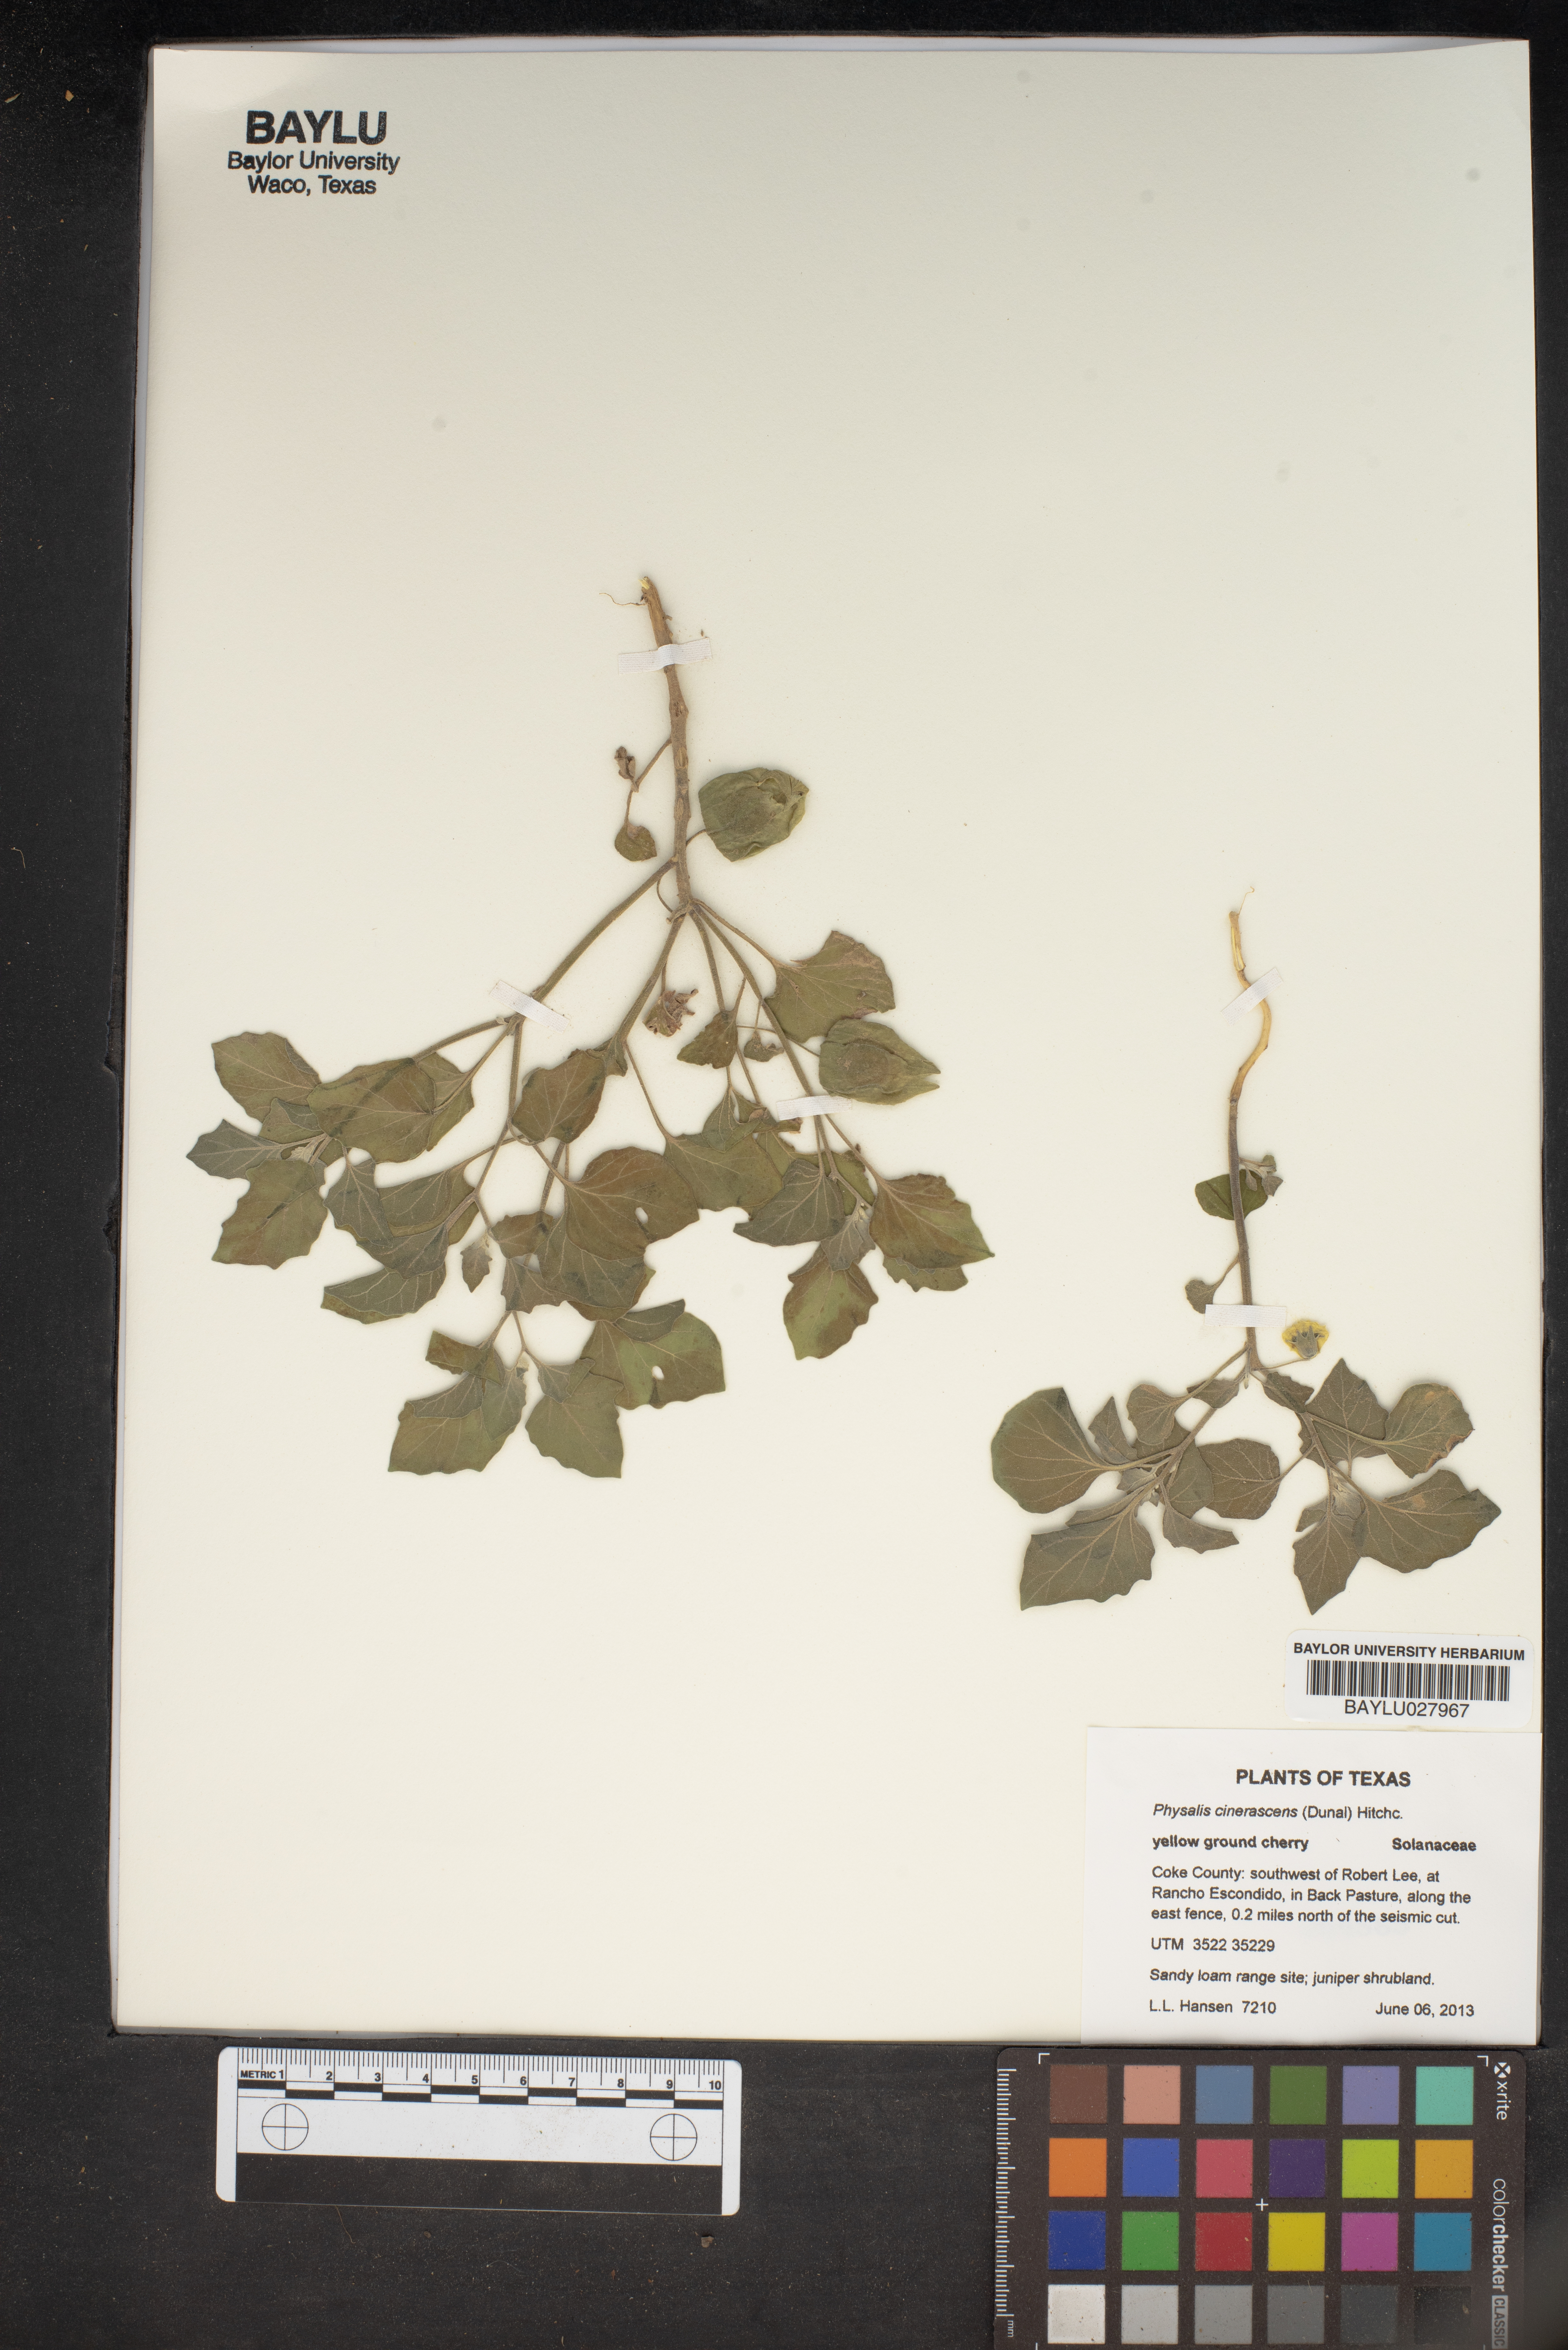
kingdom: Plantae
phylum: Tracheophyta
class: Magnoliopsida
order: Solanales
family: Solanaceae
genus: Physalis
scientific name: Physalis cinerascens
